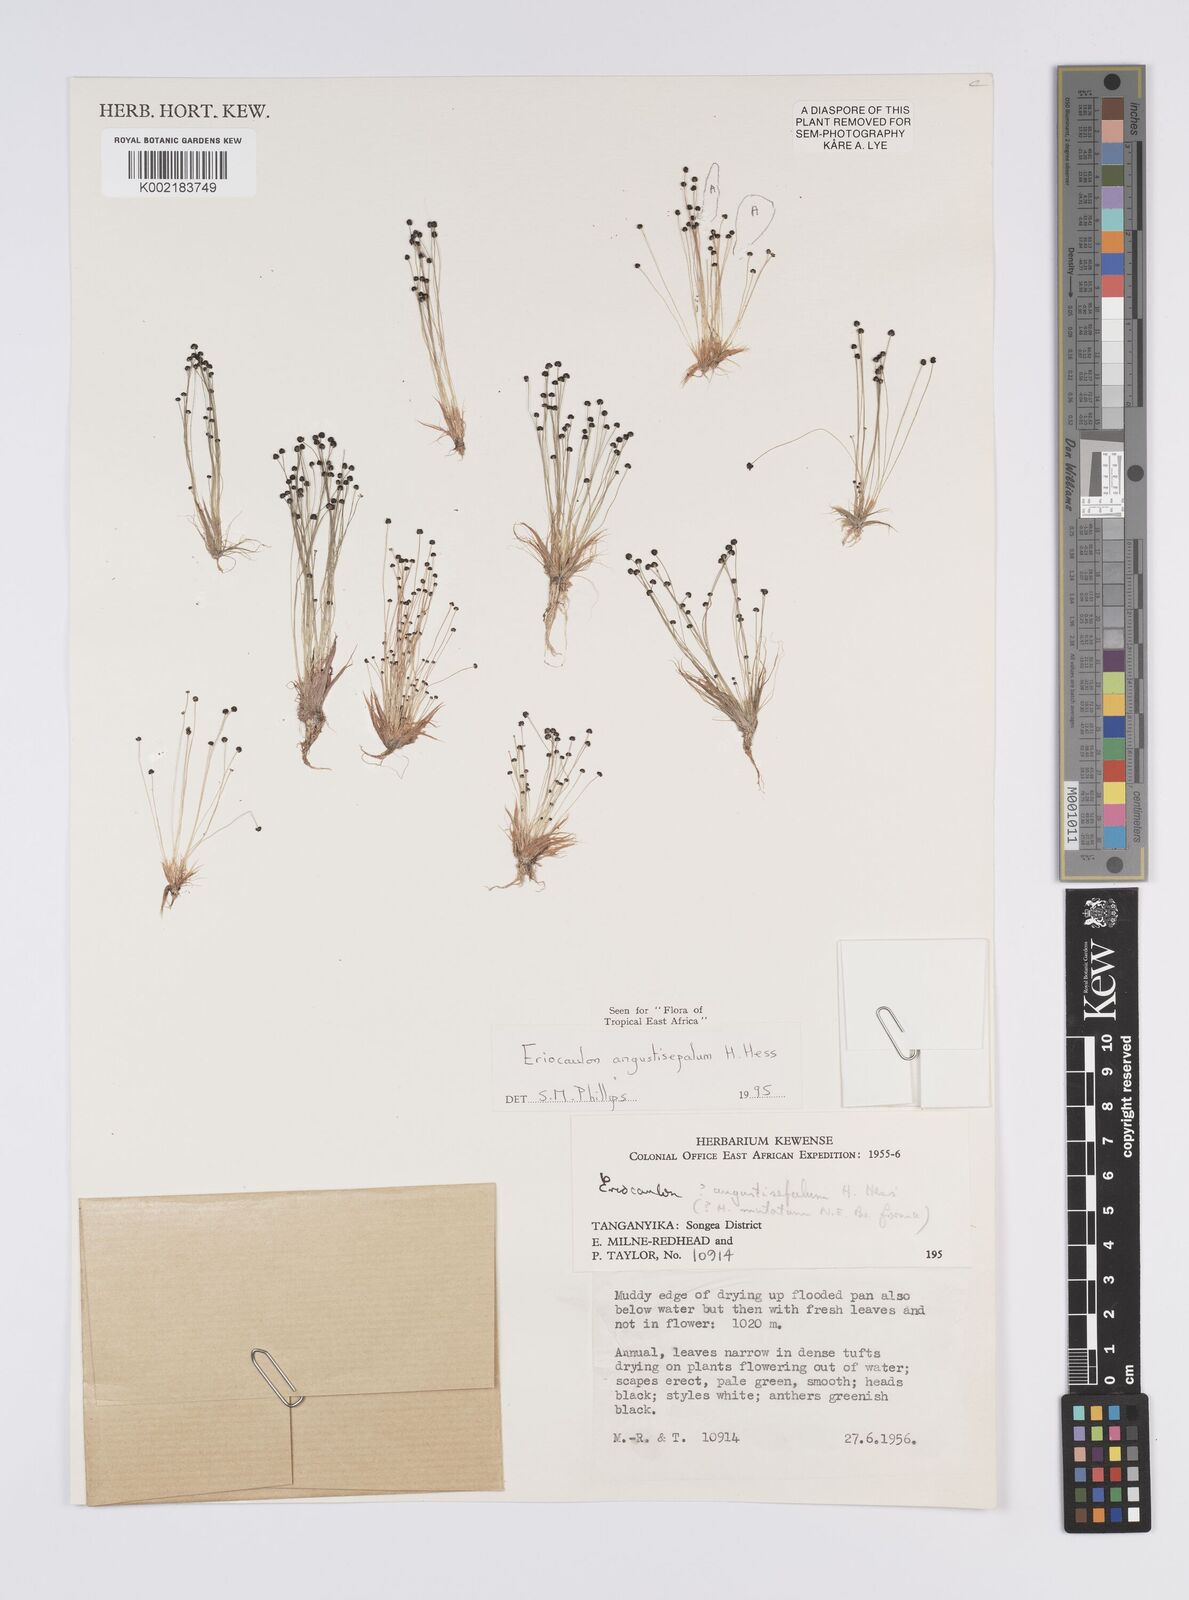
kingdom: Plantae
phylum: Tracheophyta
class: Liliopsida
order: Poales
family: Eriocaulaceae
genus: Eriocaulon
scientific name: Eriocaulon mutatum
